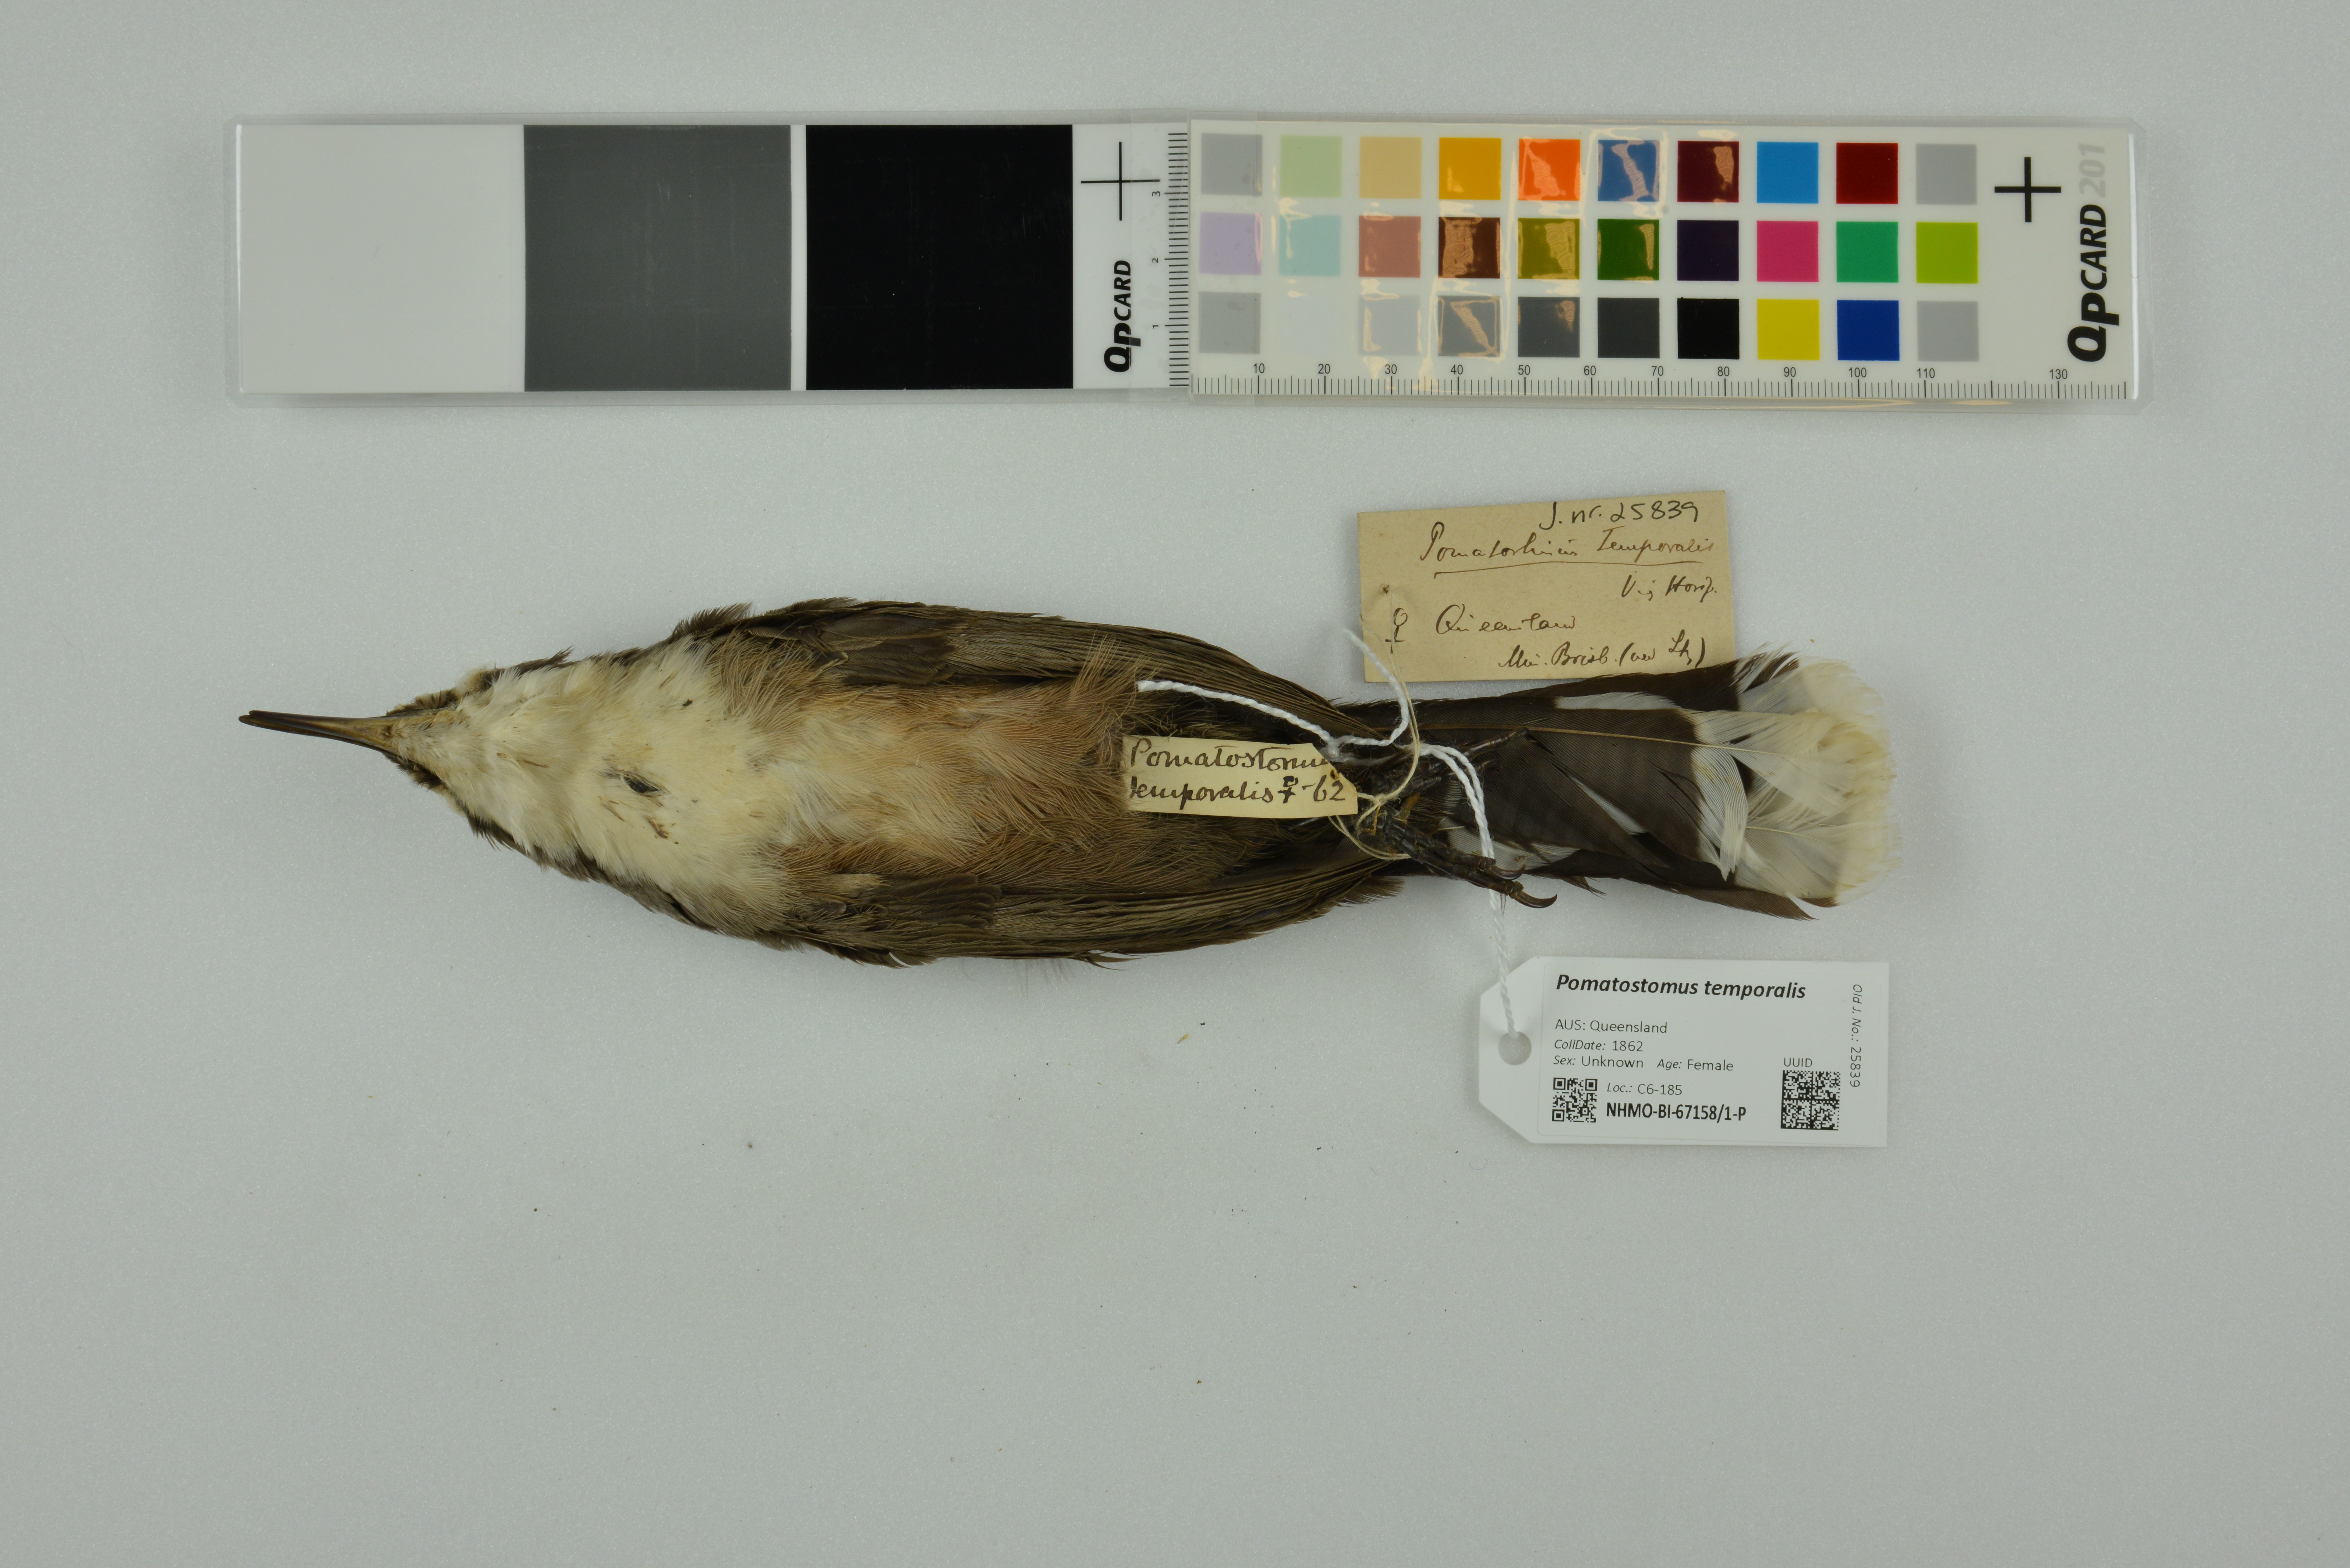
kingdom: Animalia
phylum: Chordata
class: Aves
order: Passeriformes
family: Pomatostomidae
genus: Pomatostomus
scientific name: Pomatostomus temporalis
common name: Grey-crowned babbler
